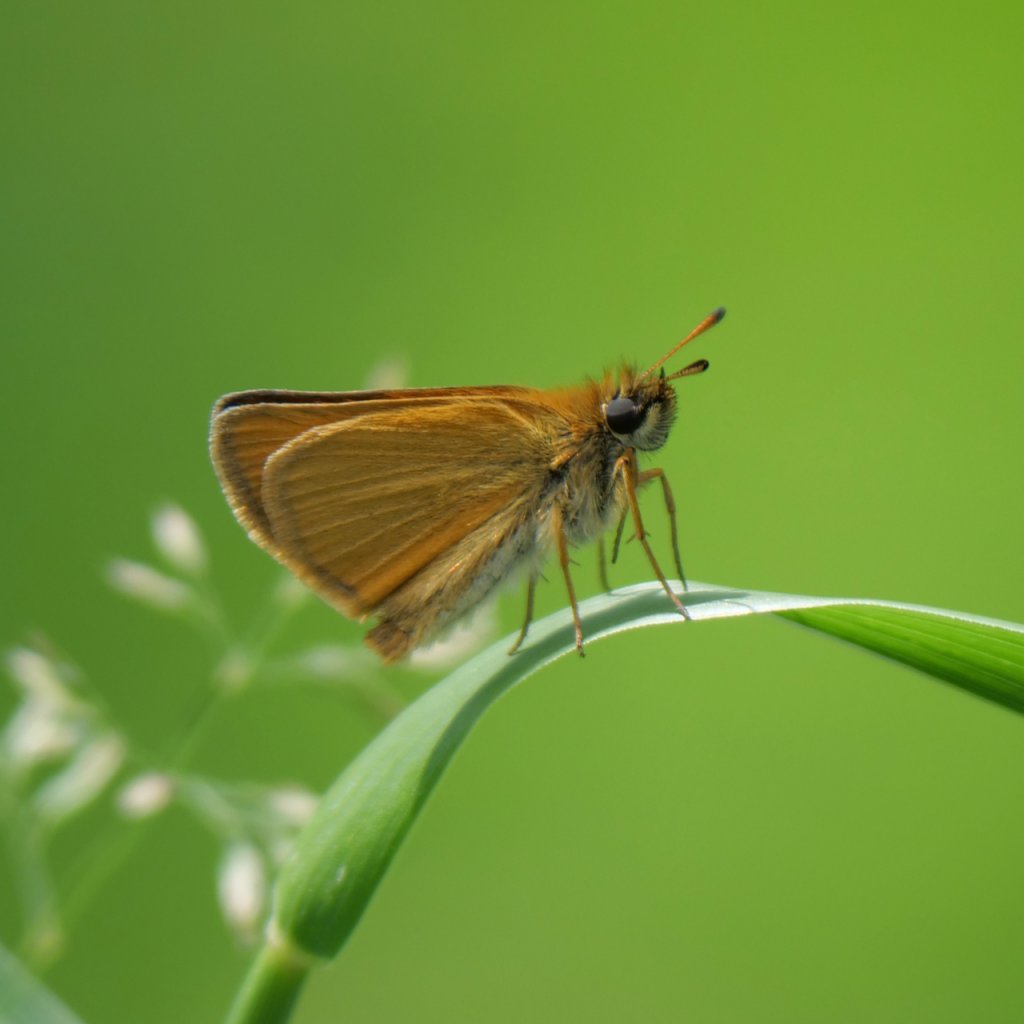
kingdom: Animalia
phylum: Arthropoda
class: Insecta
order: Lepidoptera
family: Hesperiidae
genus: Thymelicus
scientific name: Thymelicus lineola
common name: European Skipper
